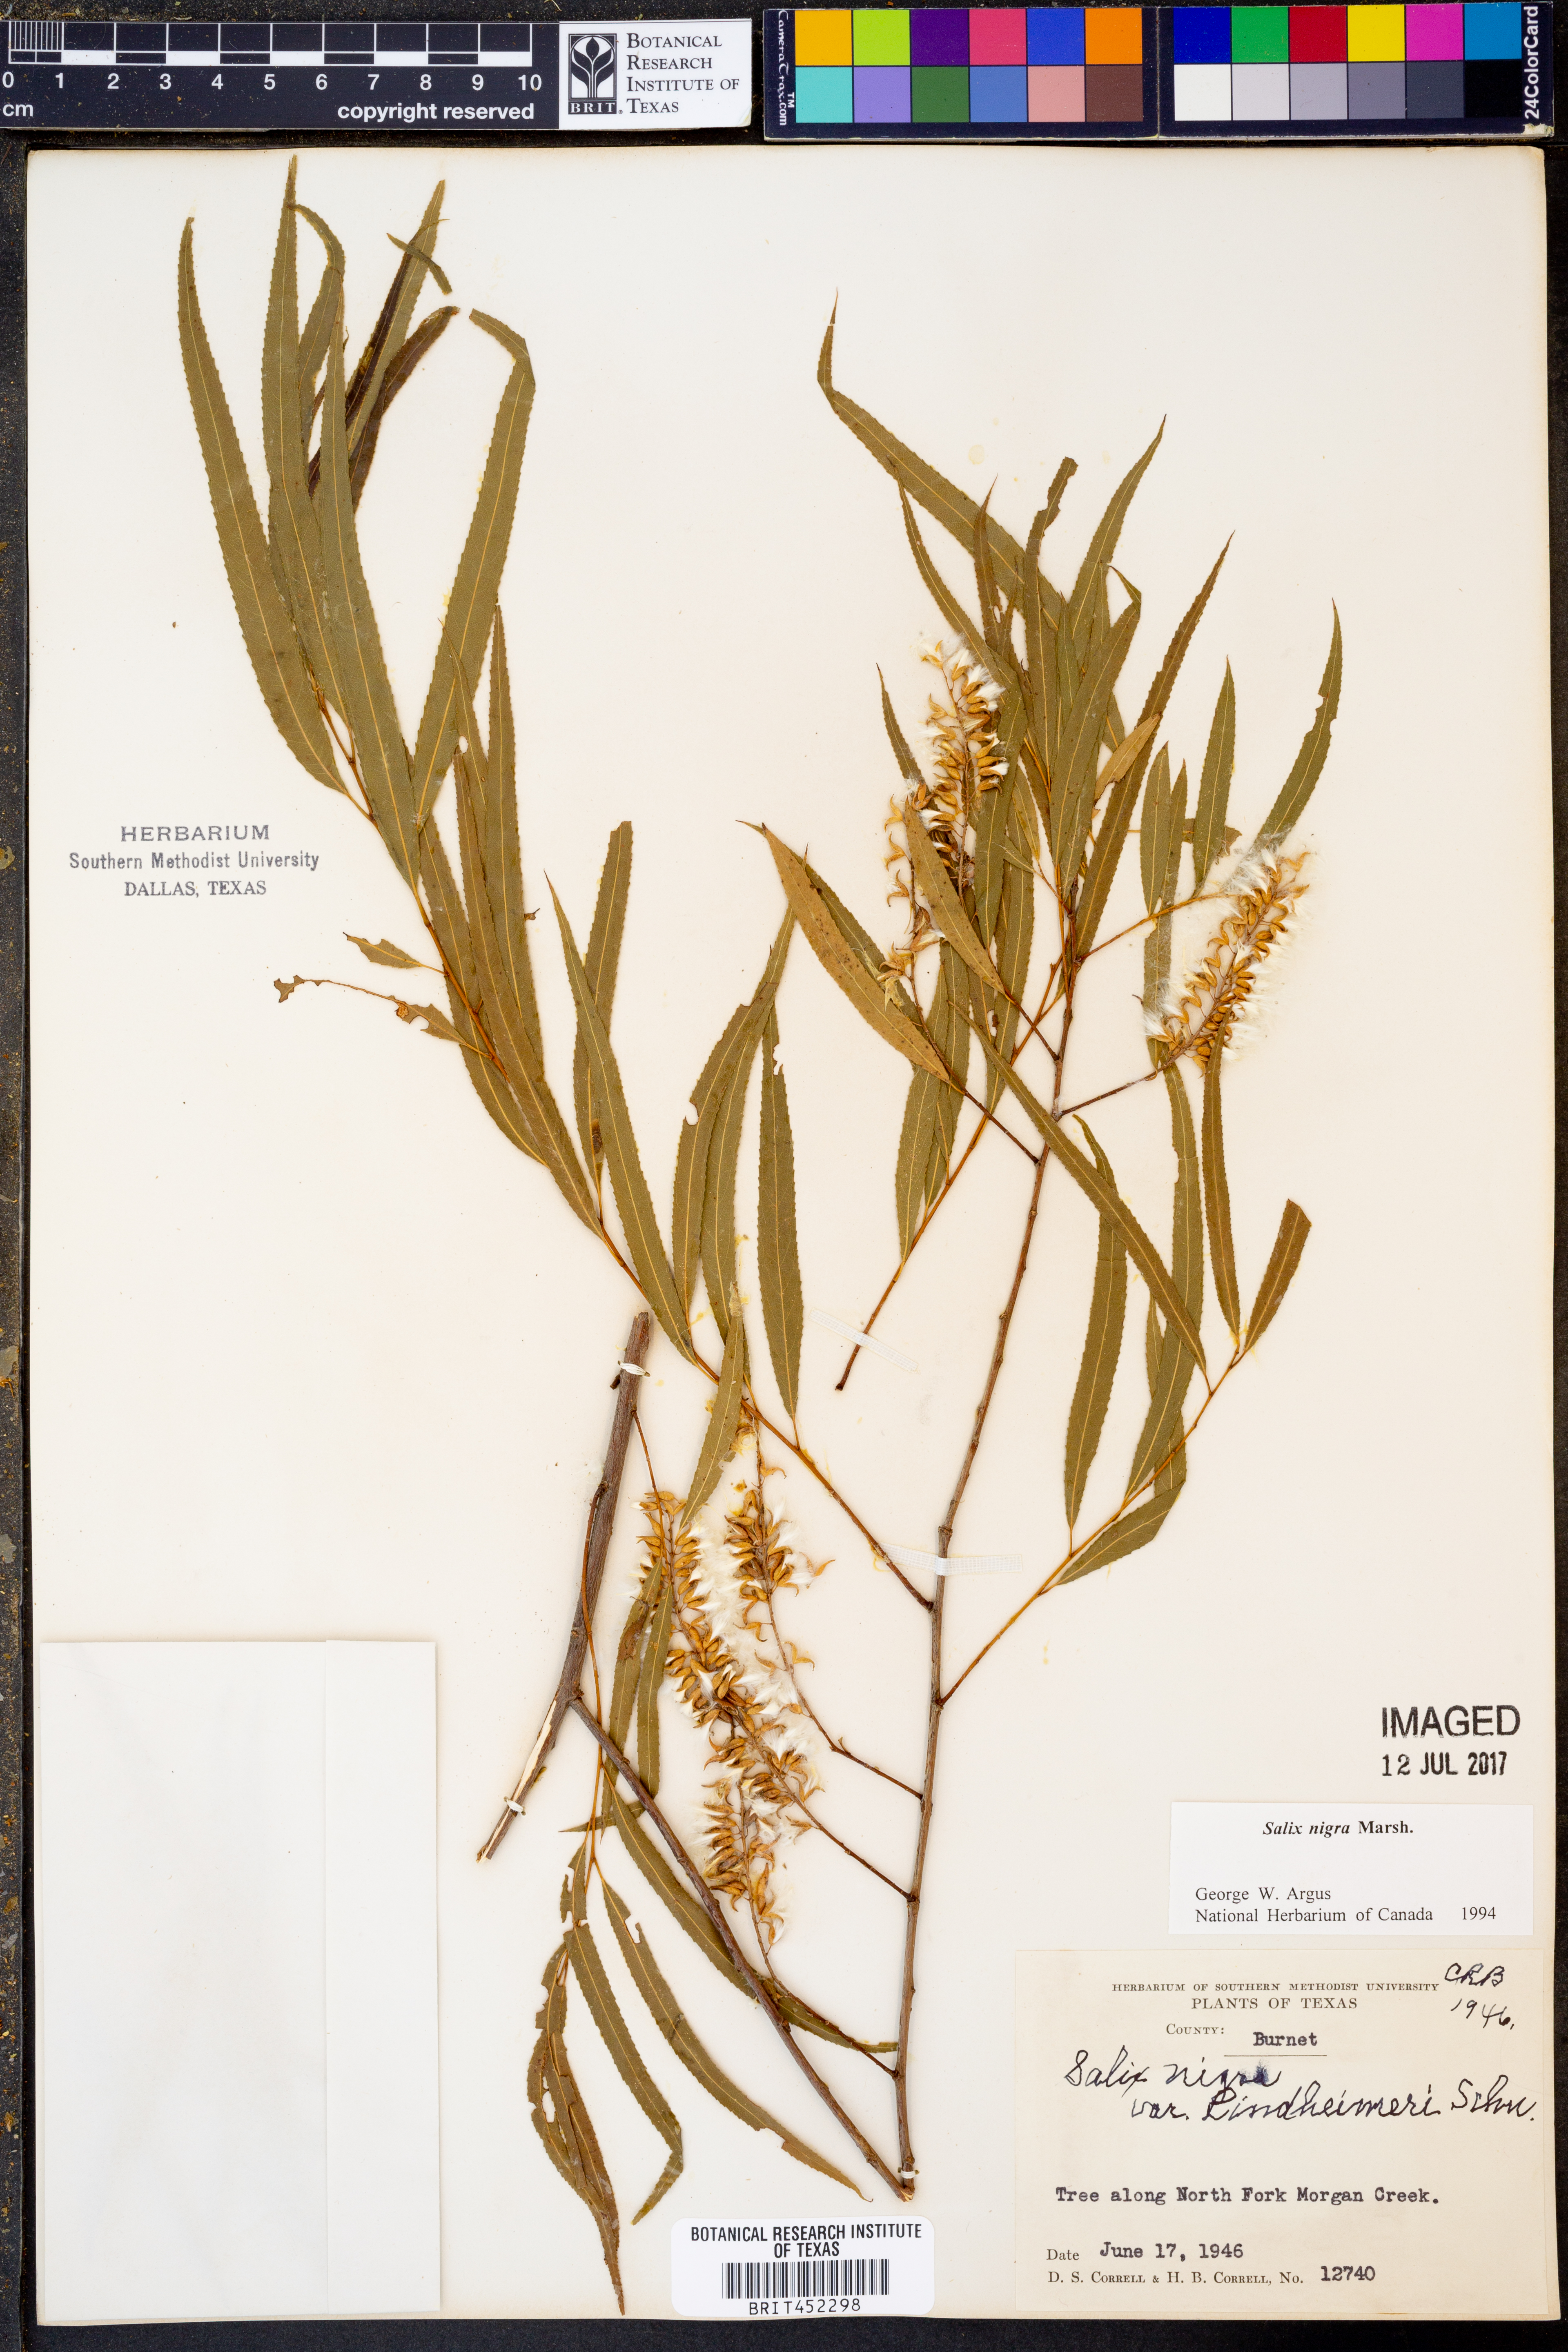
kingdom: Plantae
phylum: Tracheophyta
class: Magnoliopsida
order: Malpighiales
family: Salicaceae
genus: Salix
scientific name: Salix nigra
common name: Black willow
